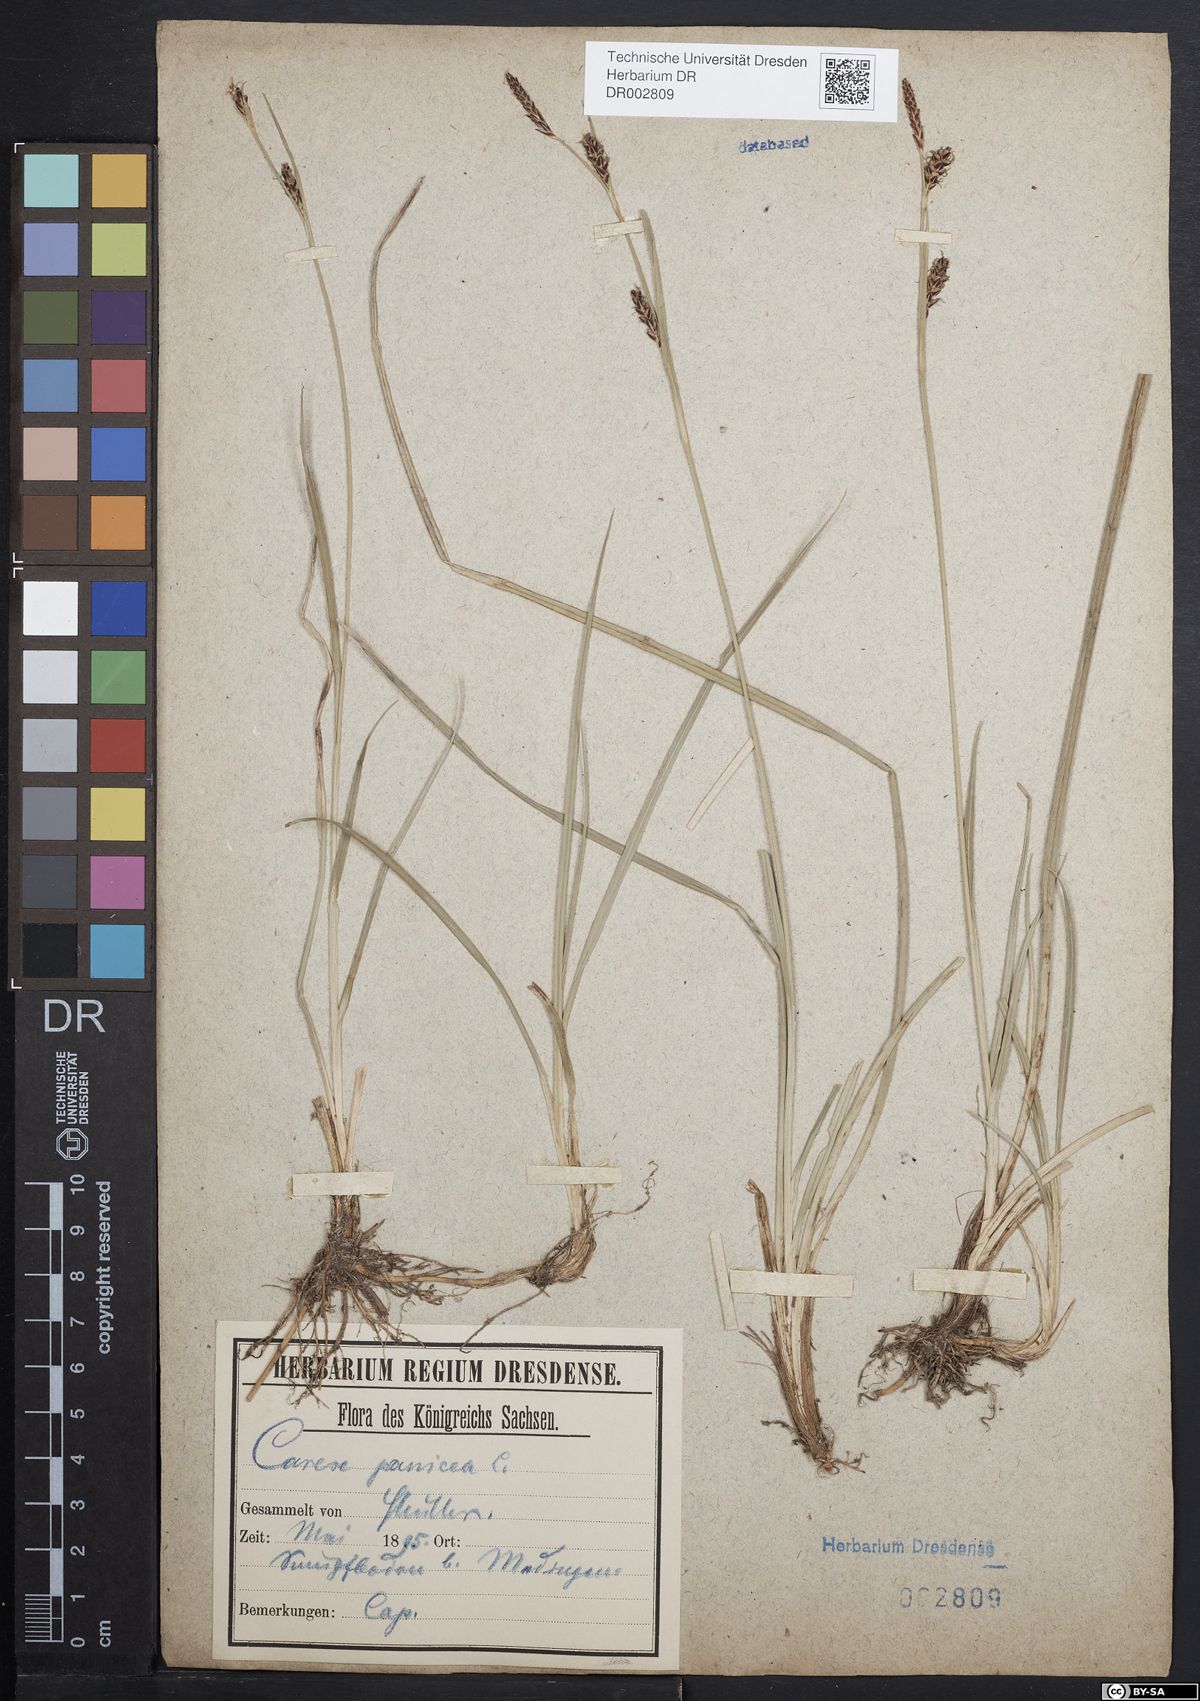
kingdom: Plantae
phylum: Tracheophyta
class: Liliopsida
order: Poales
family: Cyperaceae
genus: Carex
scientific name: Carex panicea
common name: Carnation sedge
